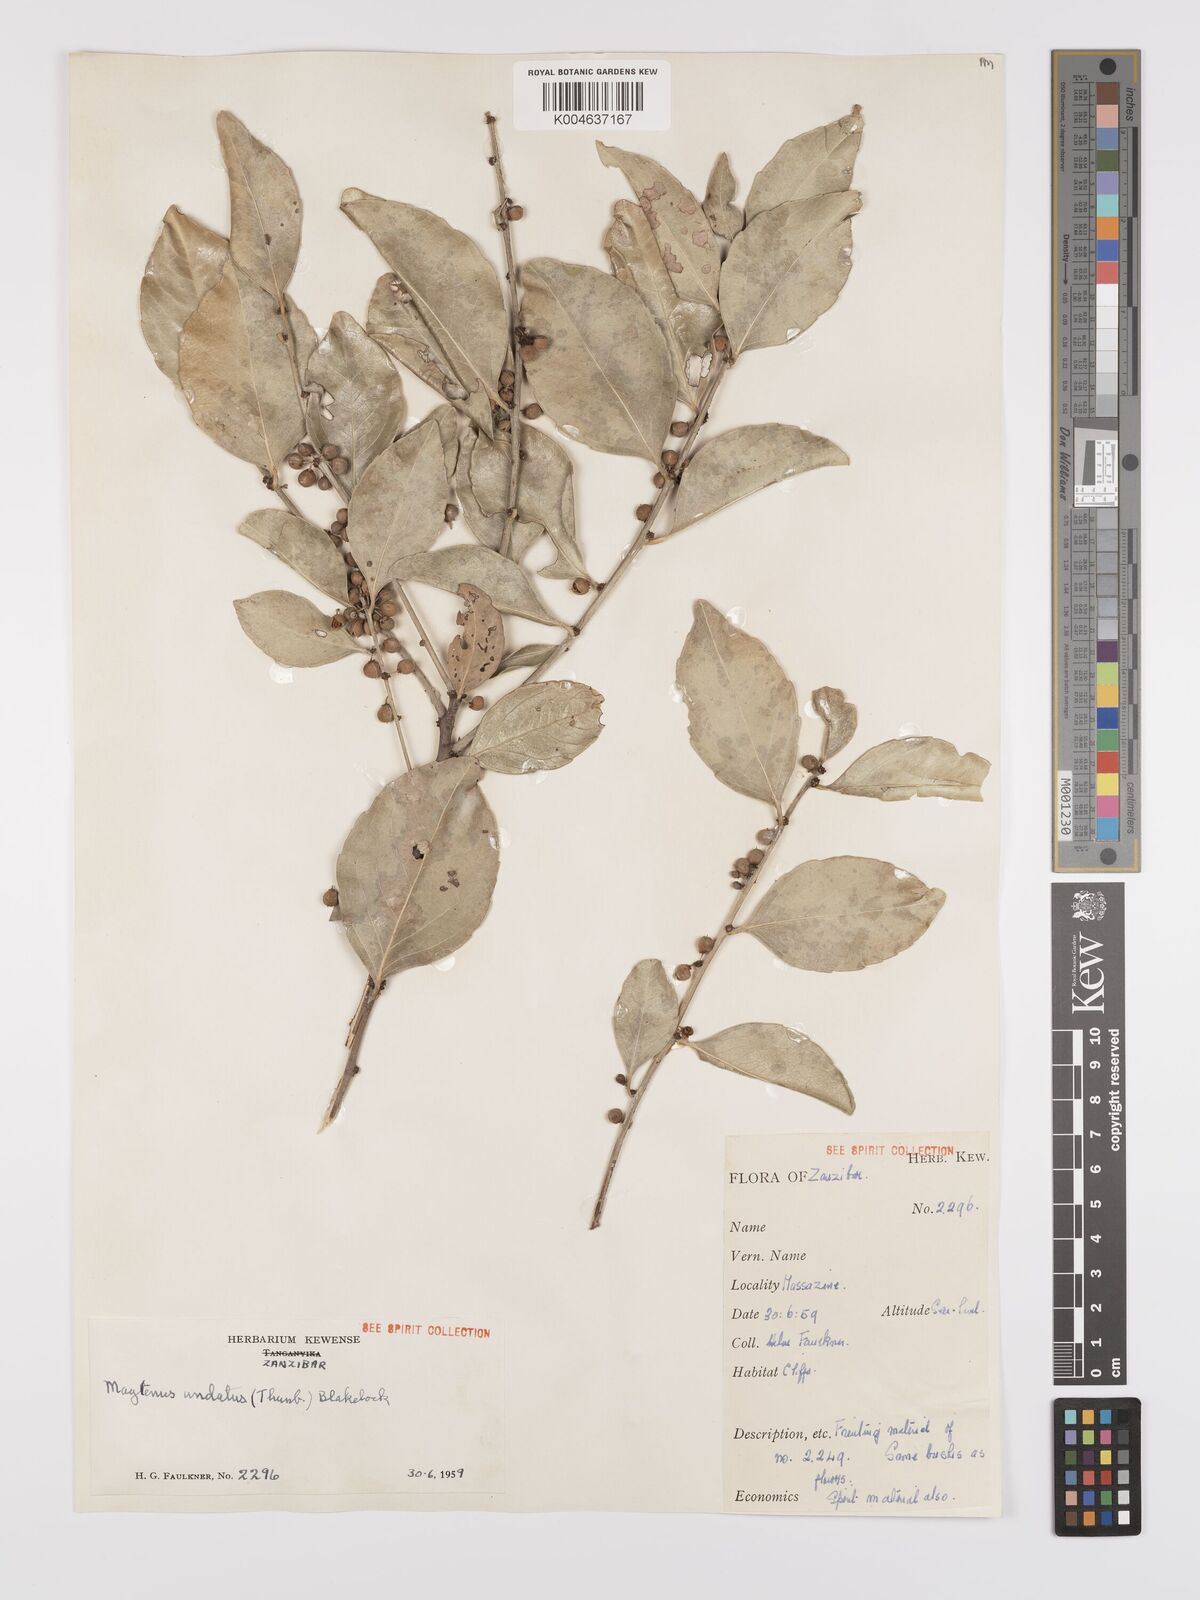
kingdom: Plantae
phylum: Tracheophyta
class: Magnoliopsida
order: Celastrales
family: Celastraceae
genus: Gymnosporia
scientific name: Gymnosporia undata
